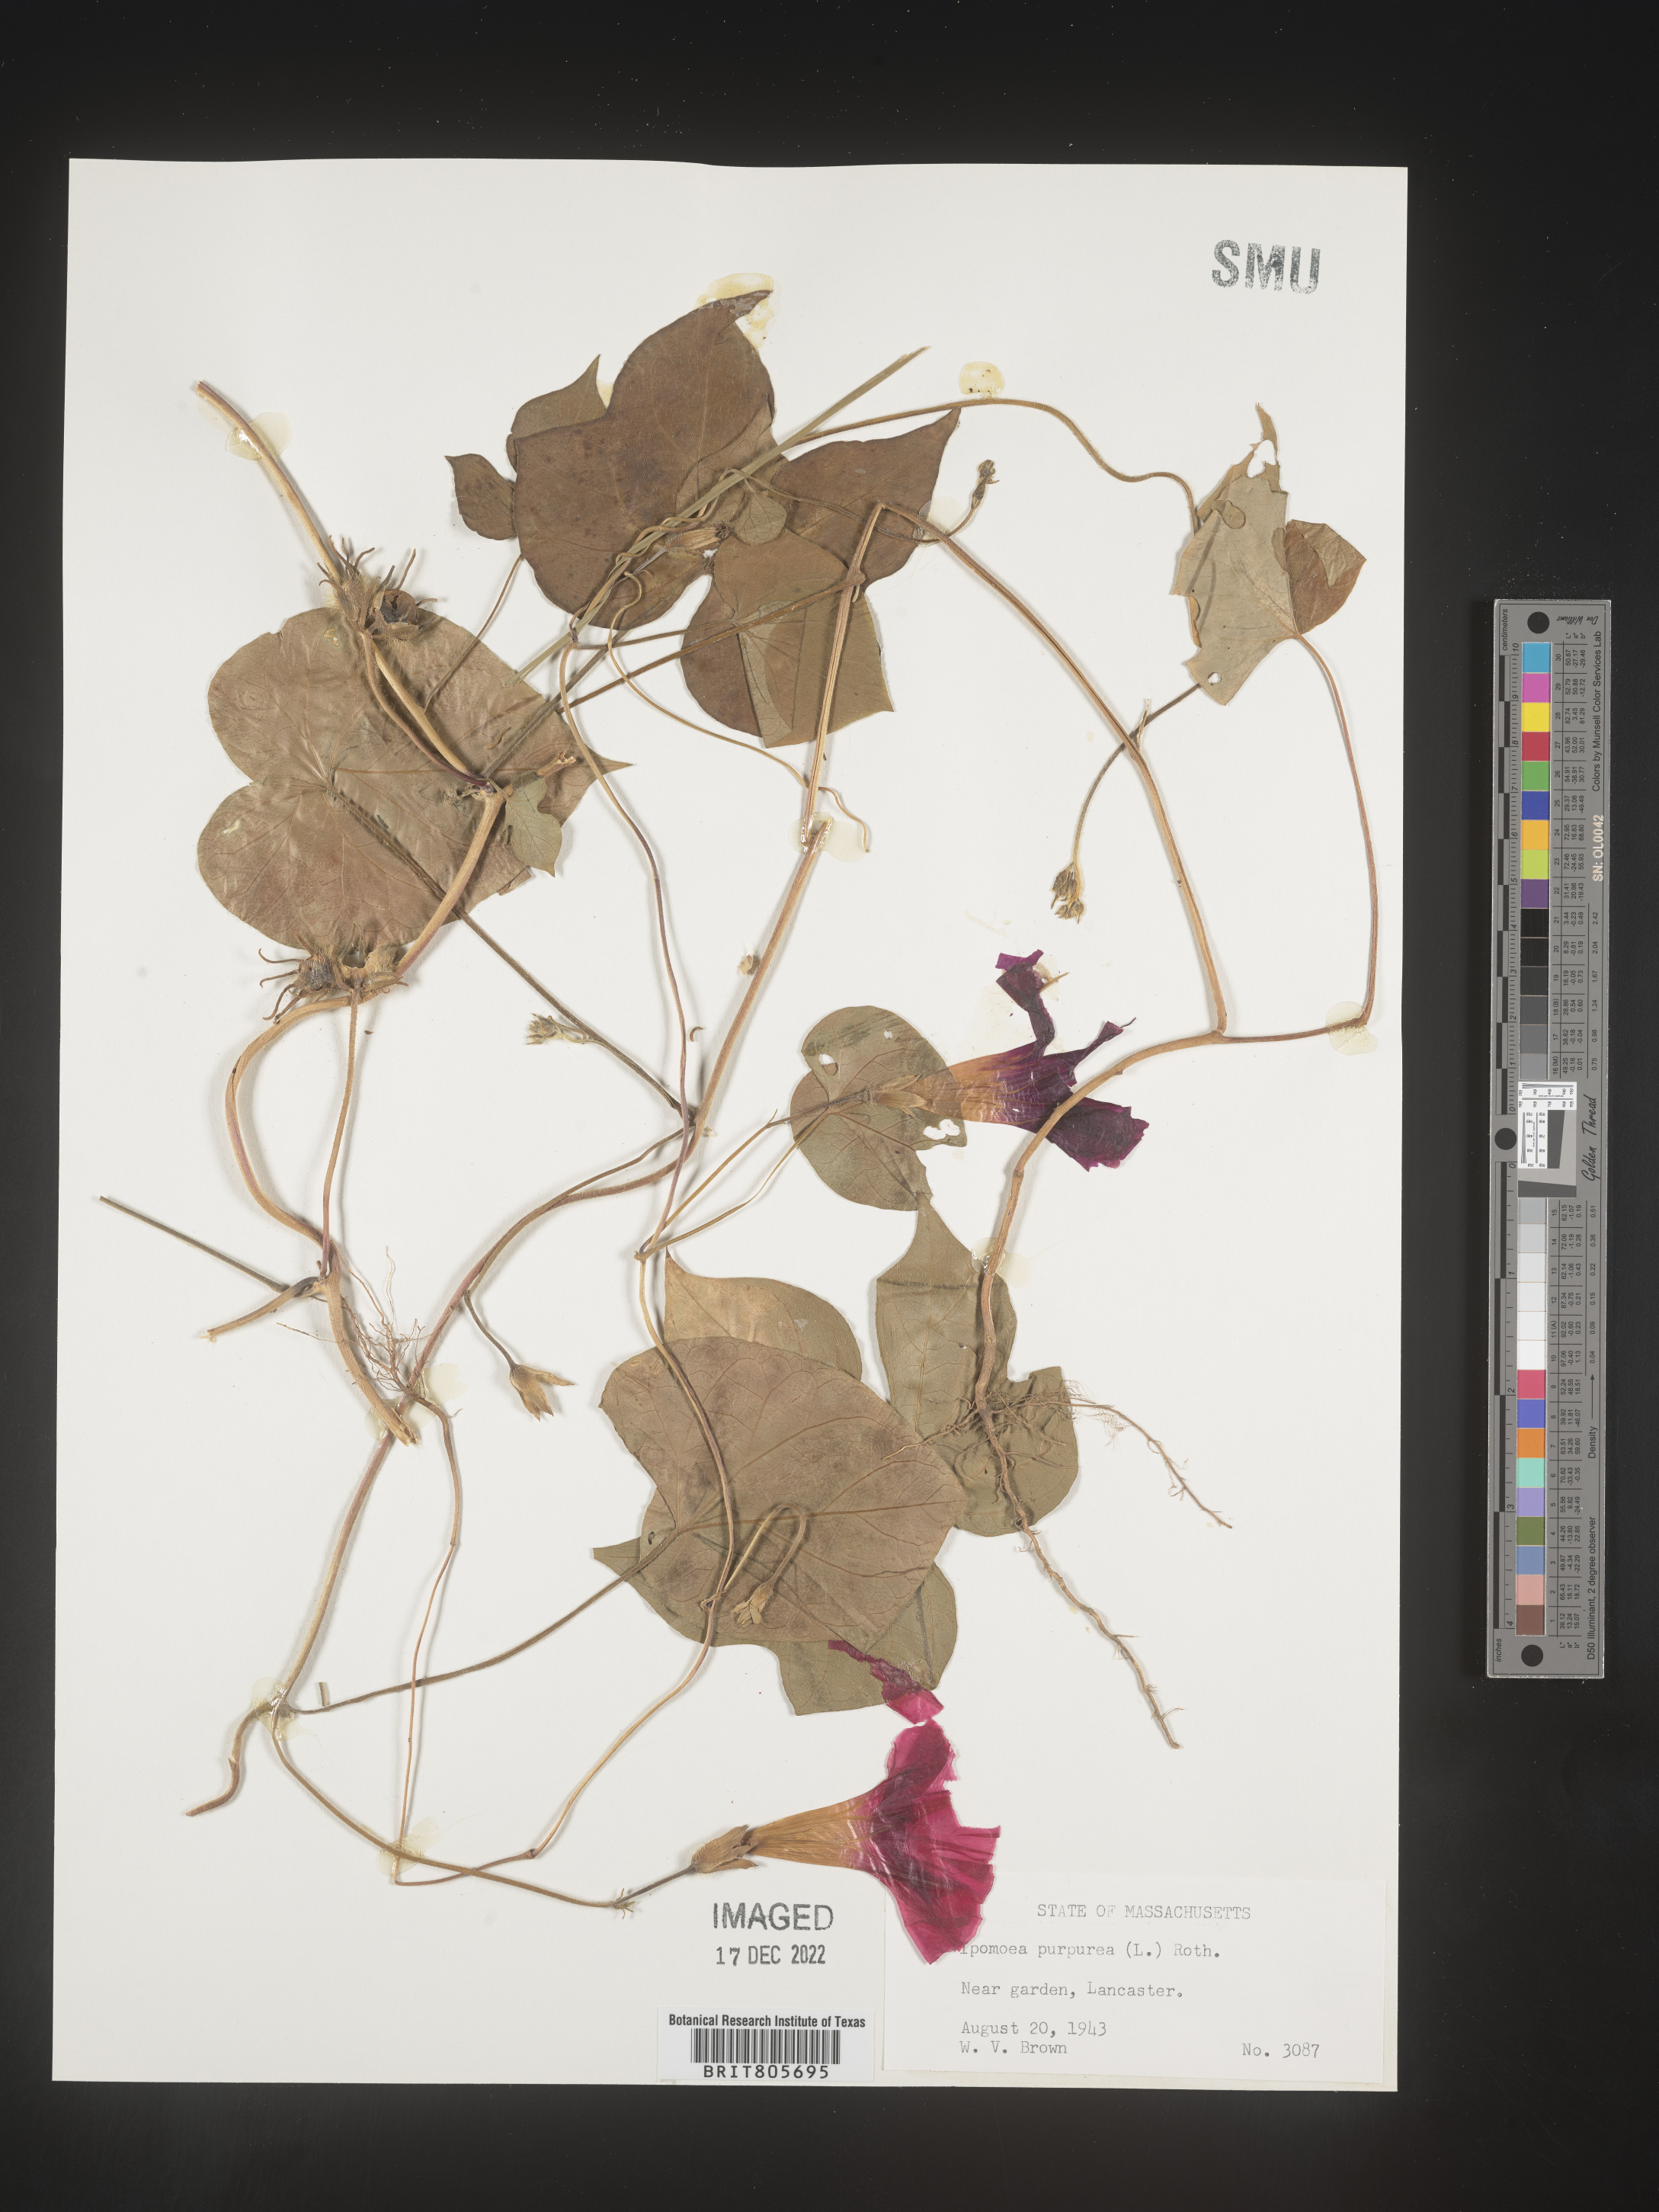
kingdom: Plantae
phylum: Tracheophyta
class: Magnoliopsida
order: Solanales
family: Convolvulaceae
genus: Ipomoea
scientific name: Ipomoea purpurea
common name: Common morning-glory
